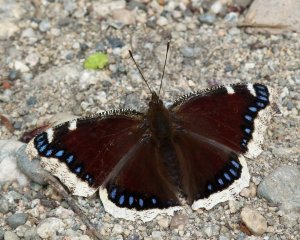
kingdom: Animalia
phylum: Arthropoda
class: Insecta
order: Lepidoptera
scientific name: Lepidoptera
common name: Butterflies
